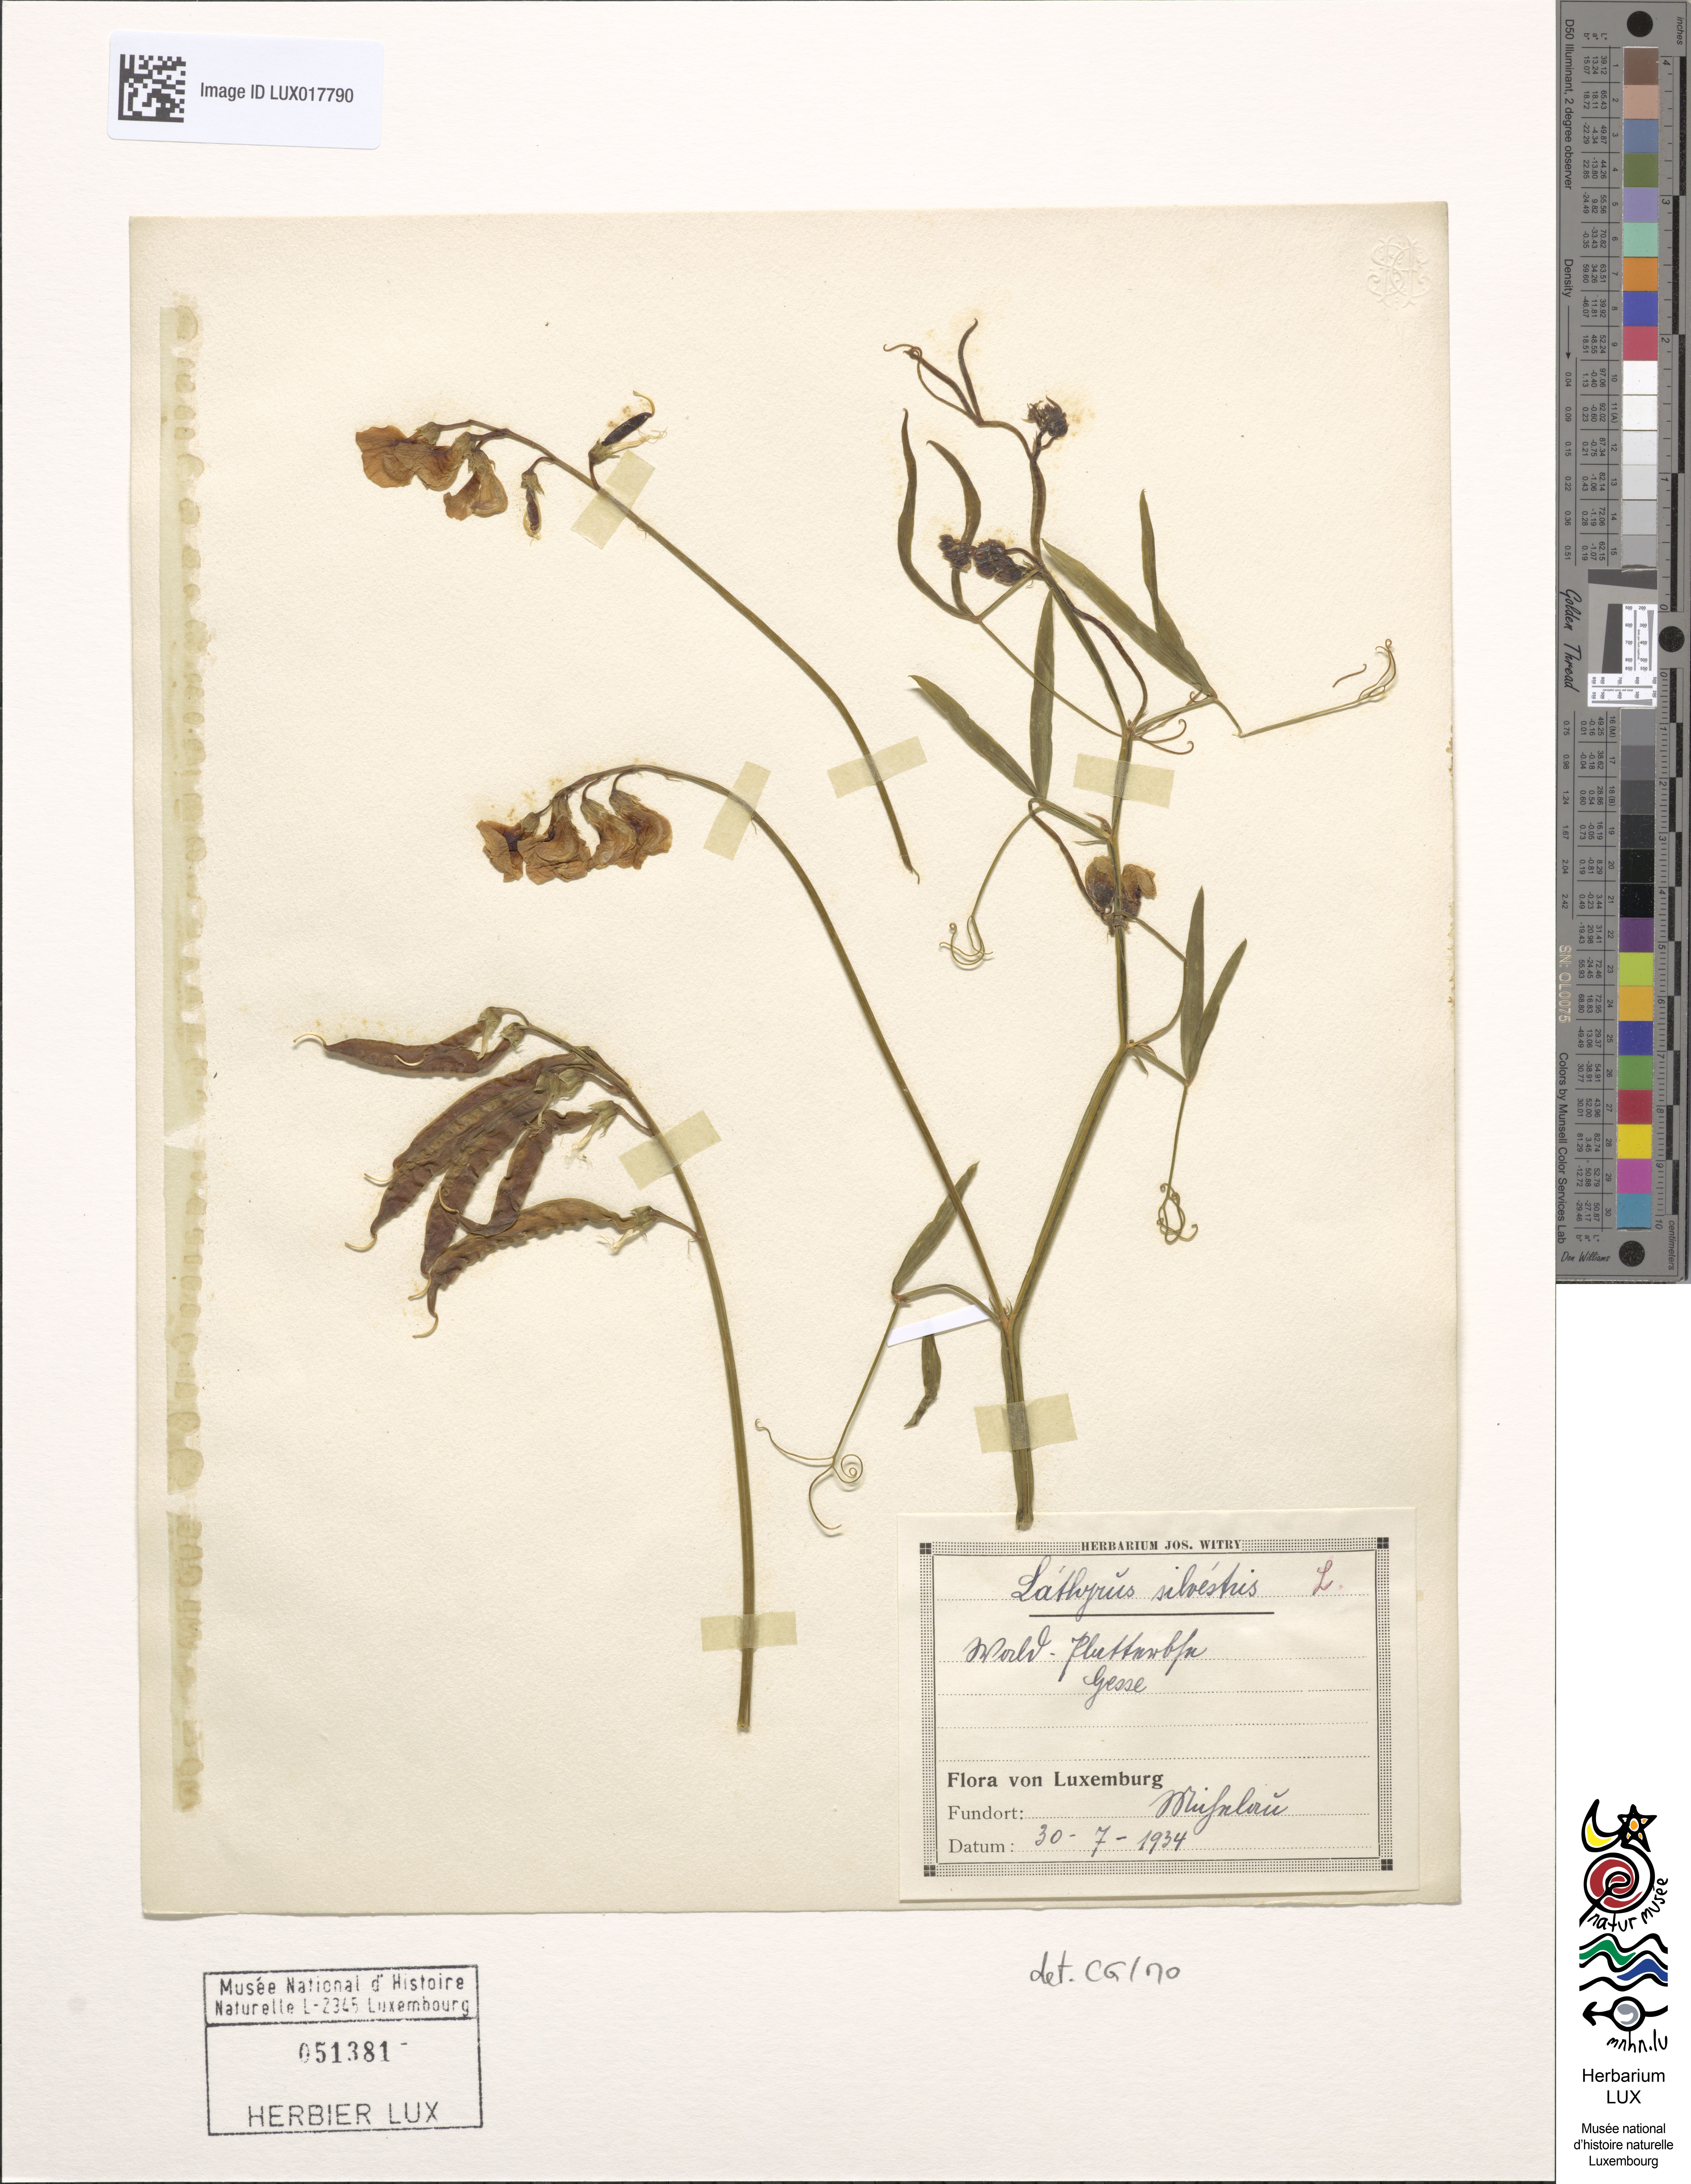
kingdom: Plantae
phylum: Tracheophyta
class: Magnoliopsida
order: Fabales
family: Fabaceae
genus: Lathyrus
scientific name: Lathyrus sylvestris
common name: Flat pea
